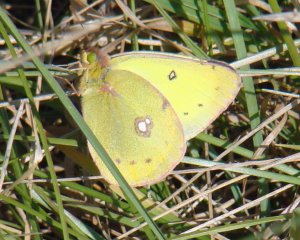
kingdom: Animalia
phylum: Arthropoda
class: Insecta
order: Lepidoptera
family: Pieridae
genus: Colias
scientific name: Colias philodice
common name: Clouded Sulphur
